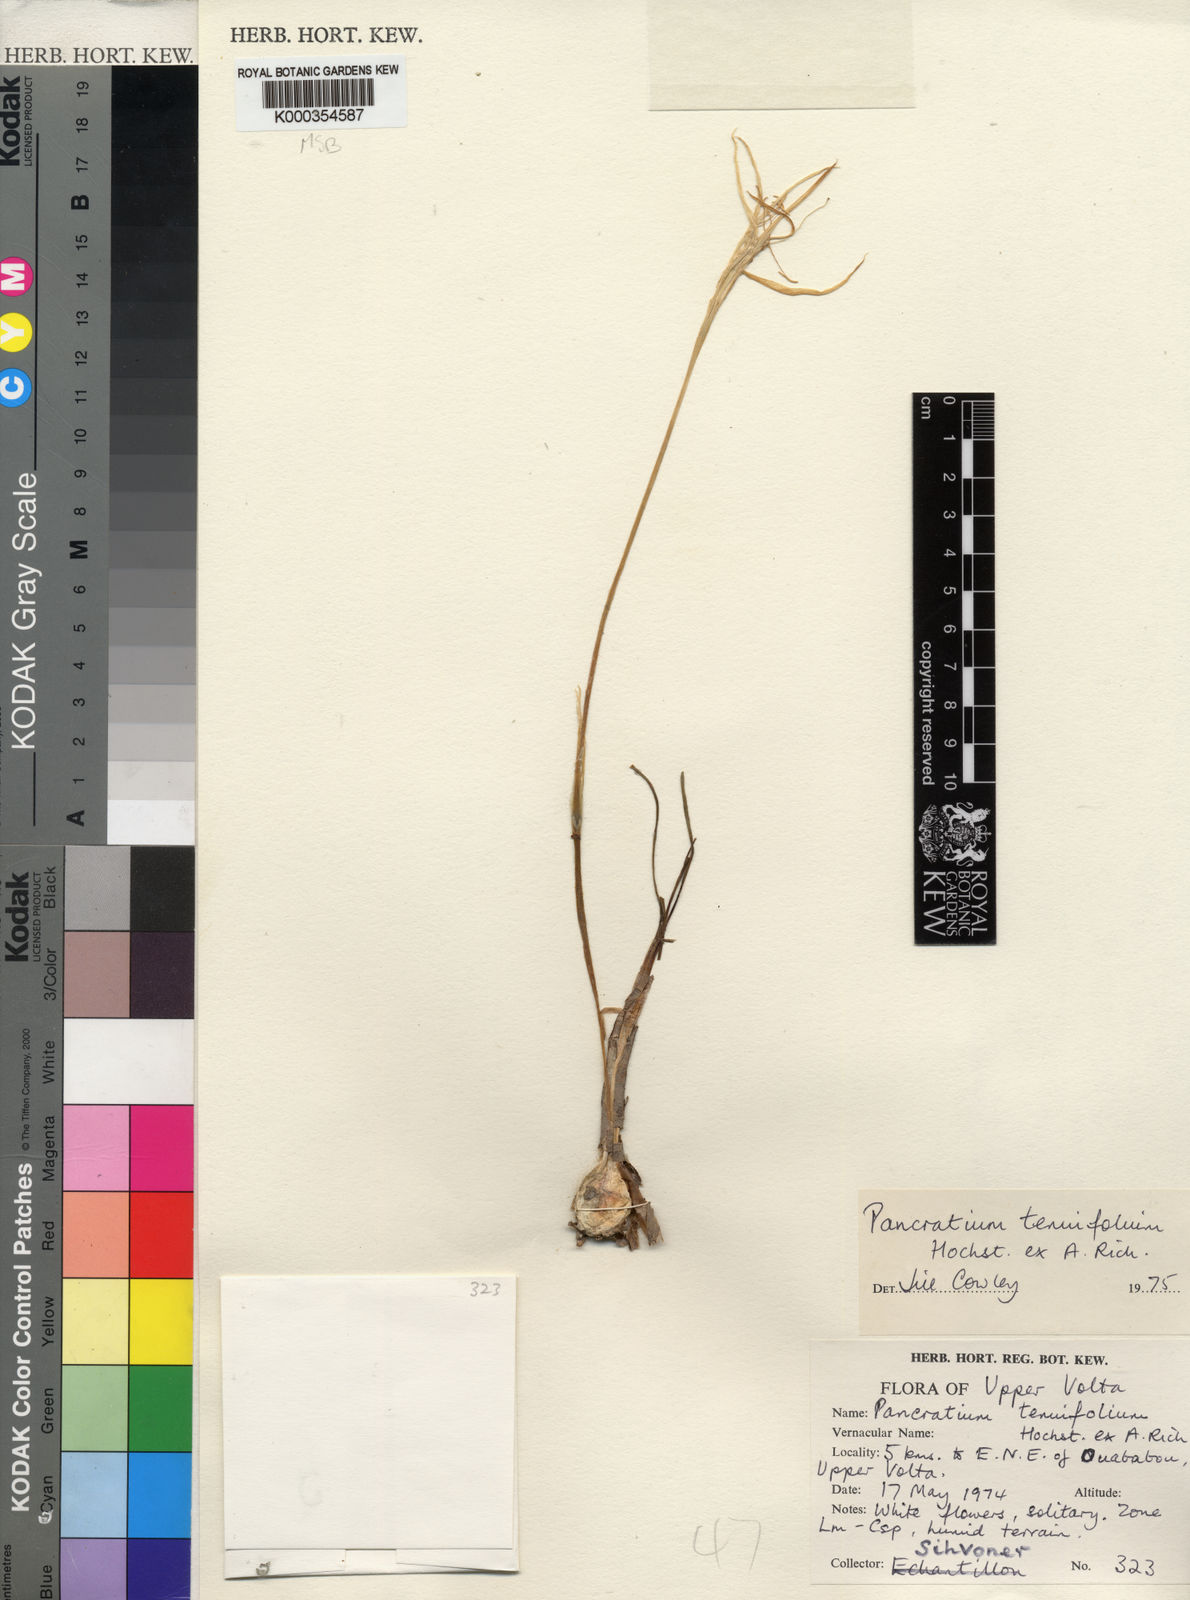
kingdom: Plantae
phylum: Tracheophyta
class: Liliopsida
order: Asparagales
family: Amaryllidaceae
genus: Pancratium
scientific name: Pancratium tenuifolium
